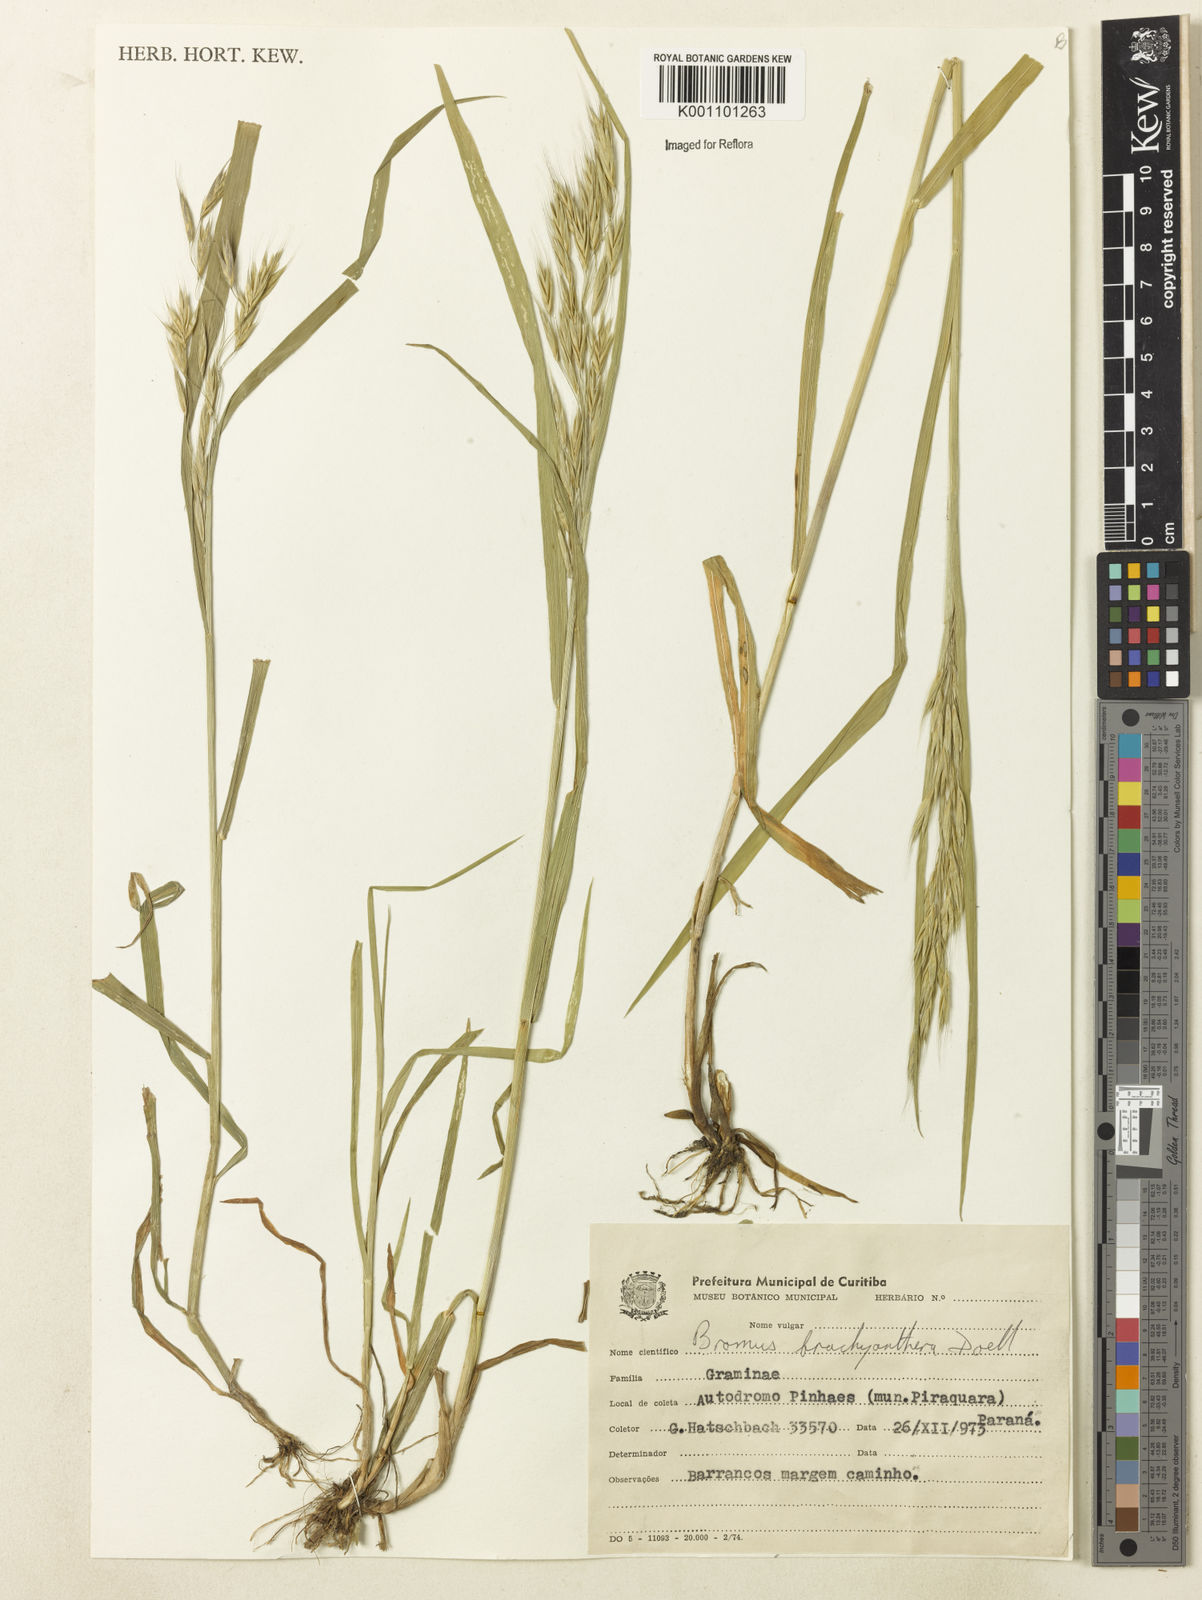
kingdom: Plantae
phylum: Tracheophyta
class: Liliopsida
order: Poales
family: Poaceae
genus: Bromus
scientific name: Bromus
